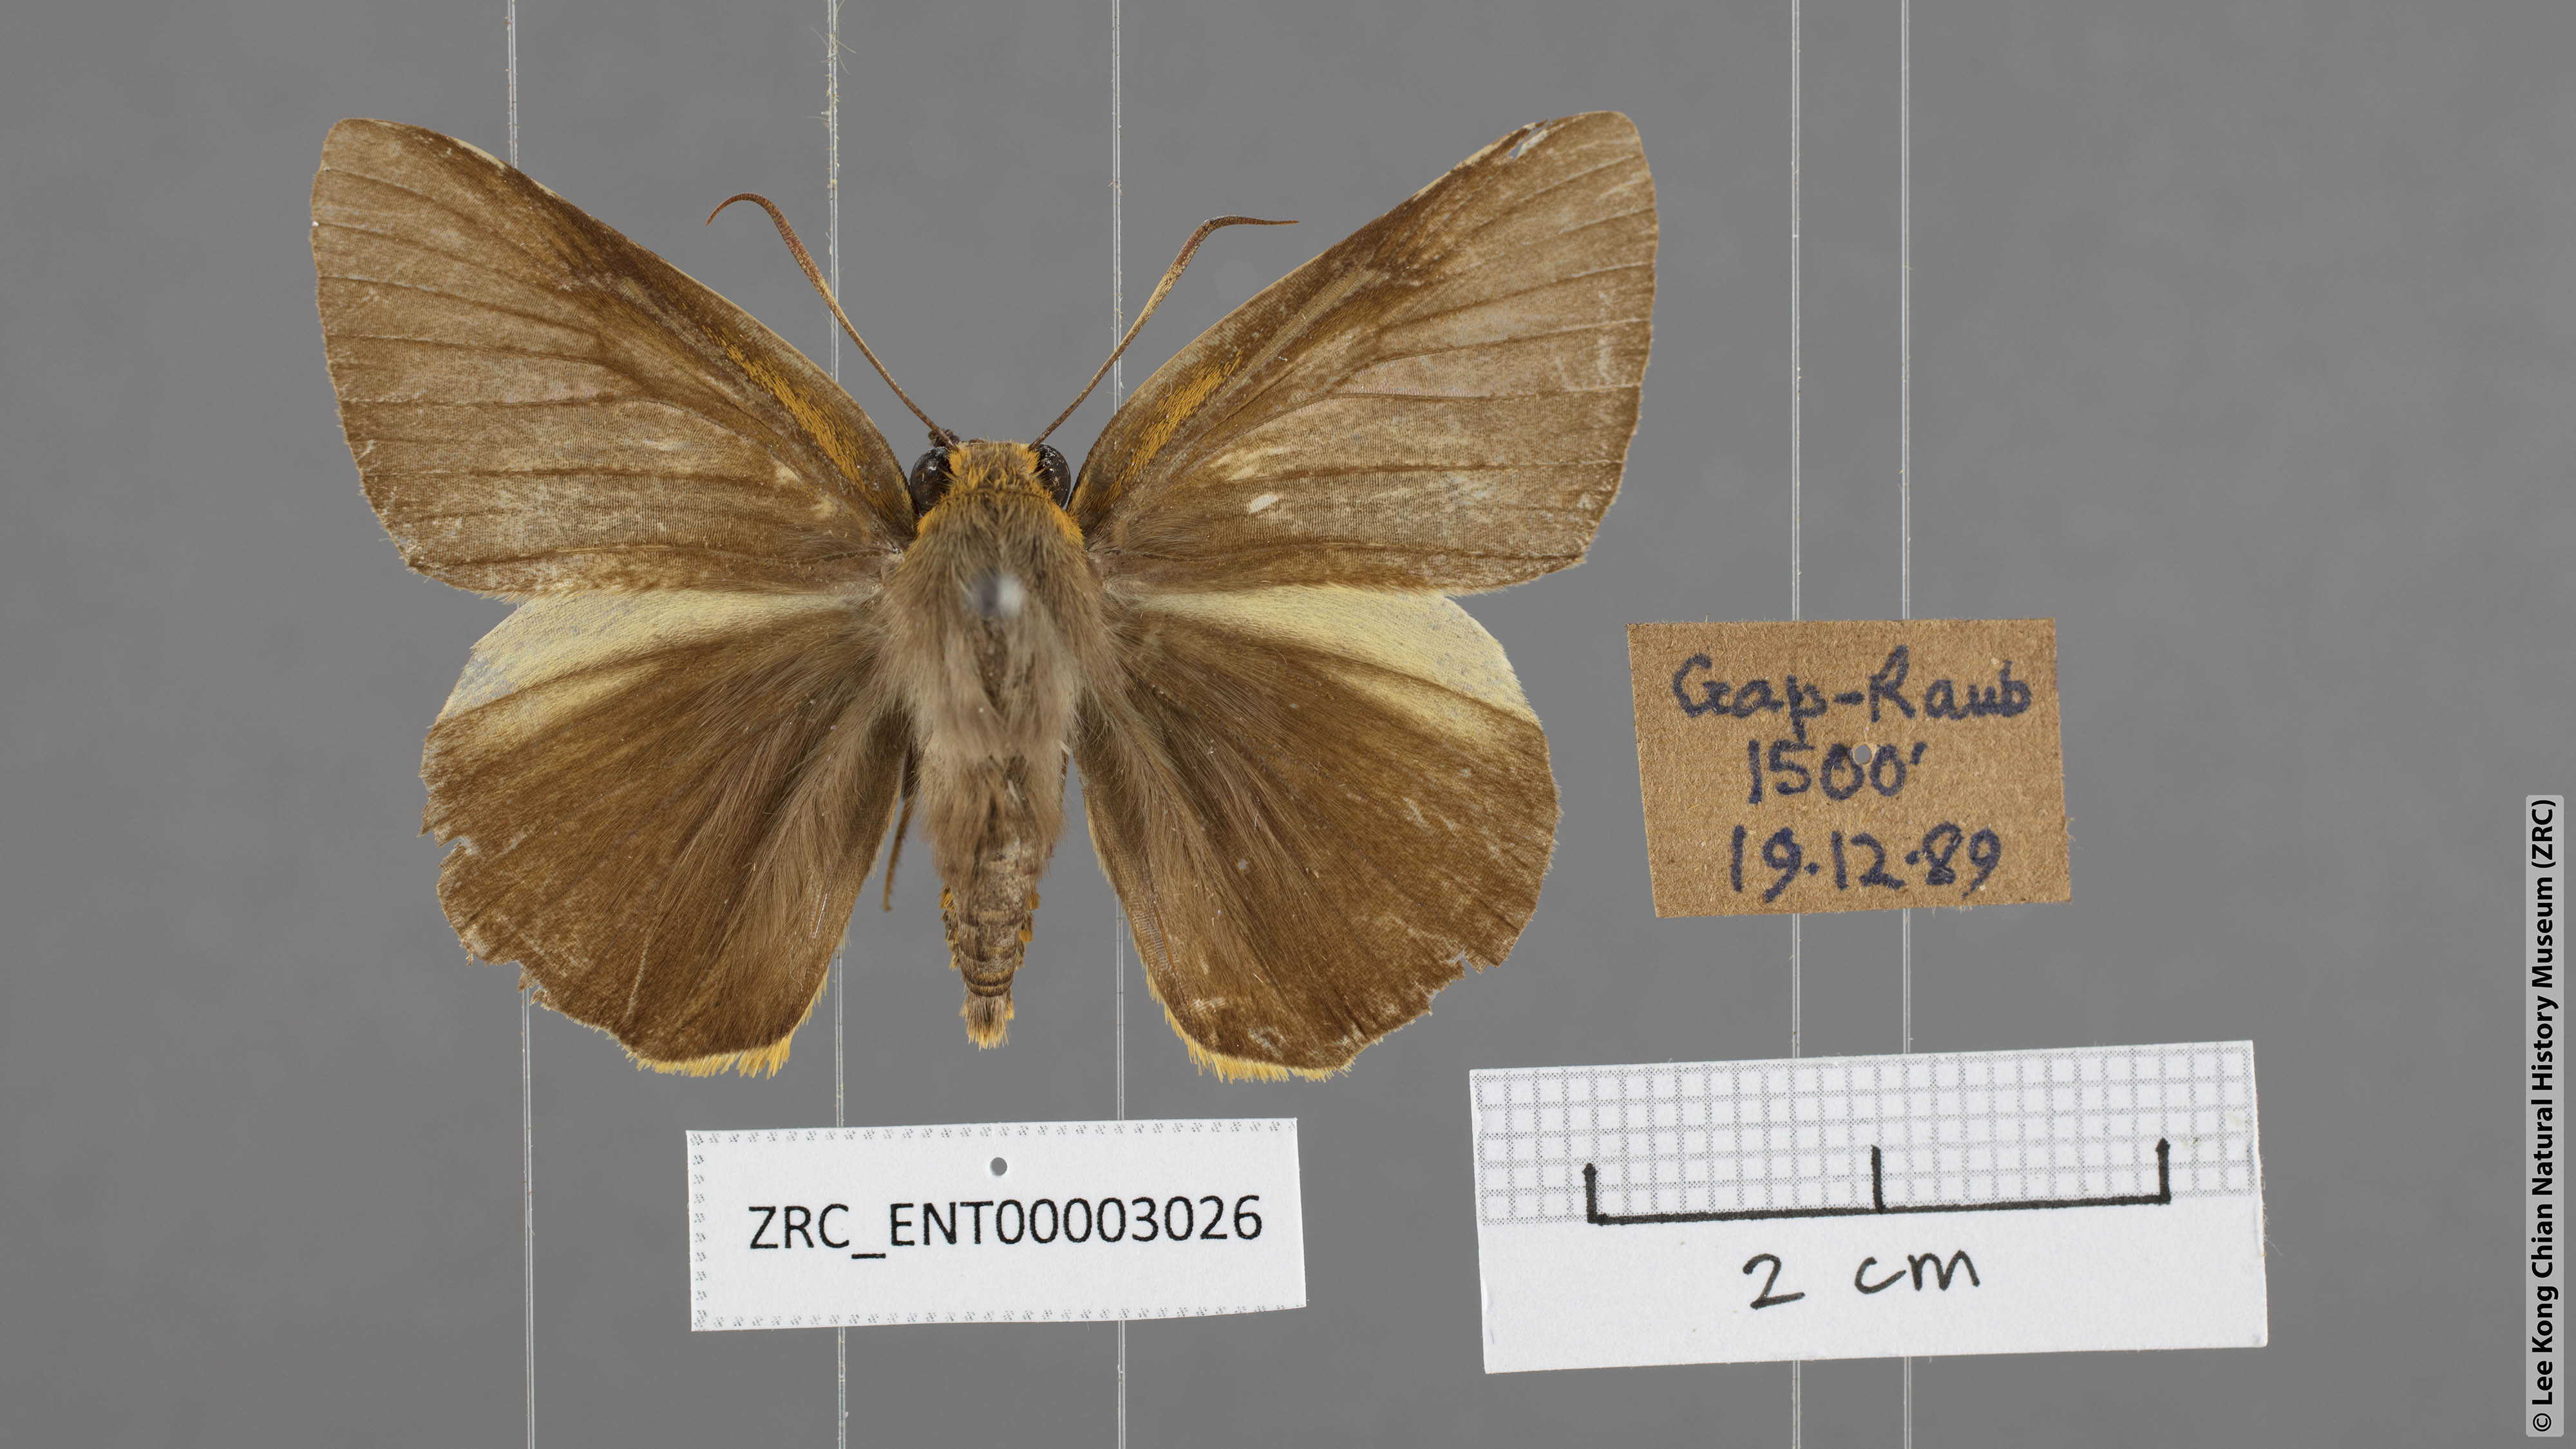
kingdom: Animalia
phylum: Arthropoda
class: Insecta
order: Lepidoptera
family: Hesperiidae
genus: Bibasis
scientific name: Bibasis Burara harisa
